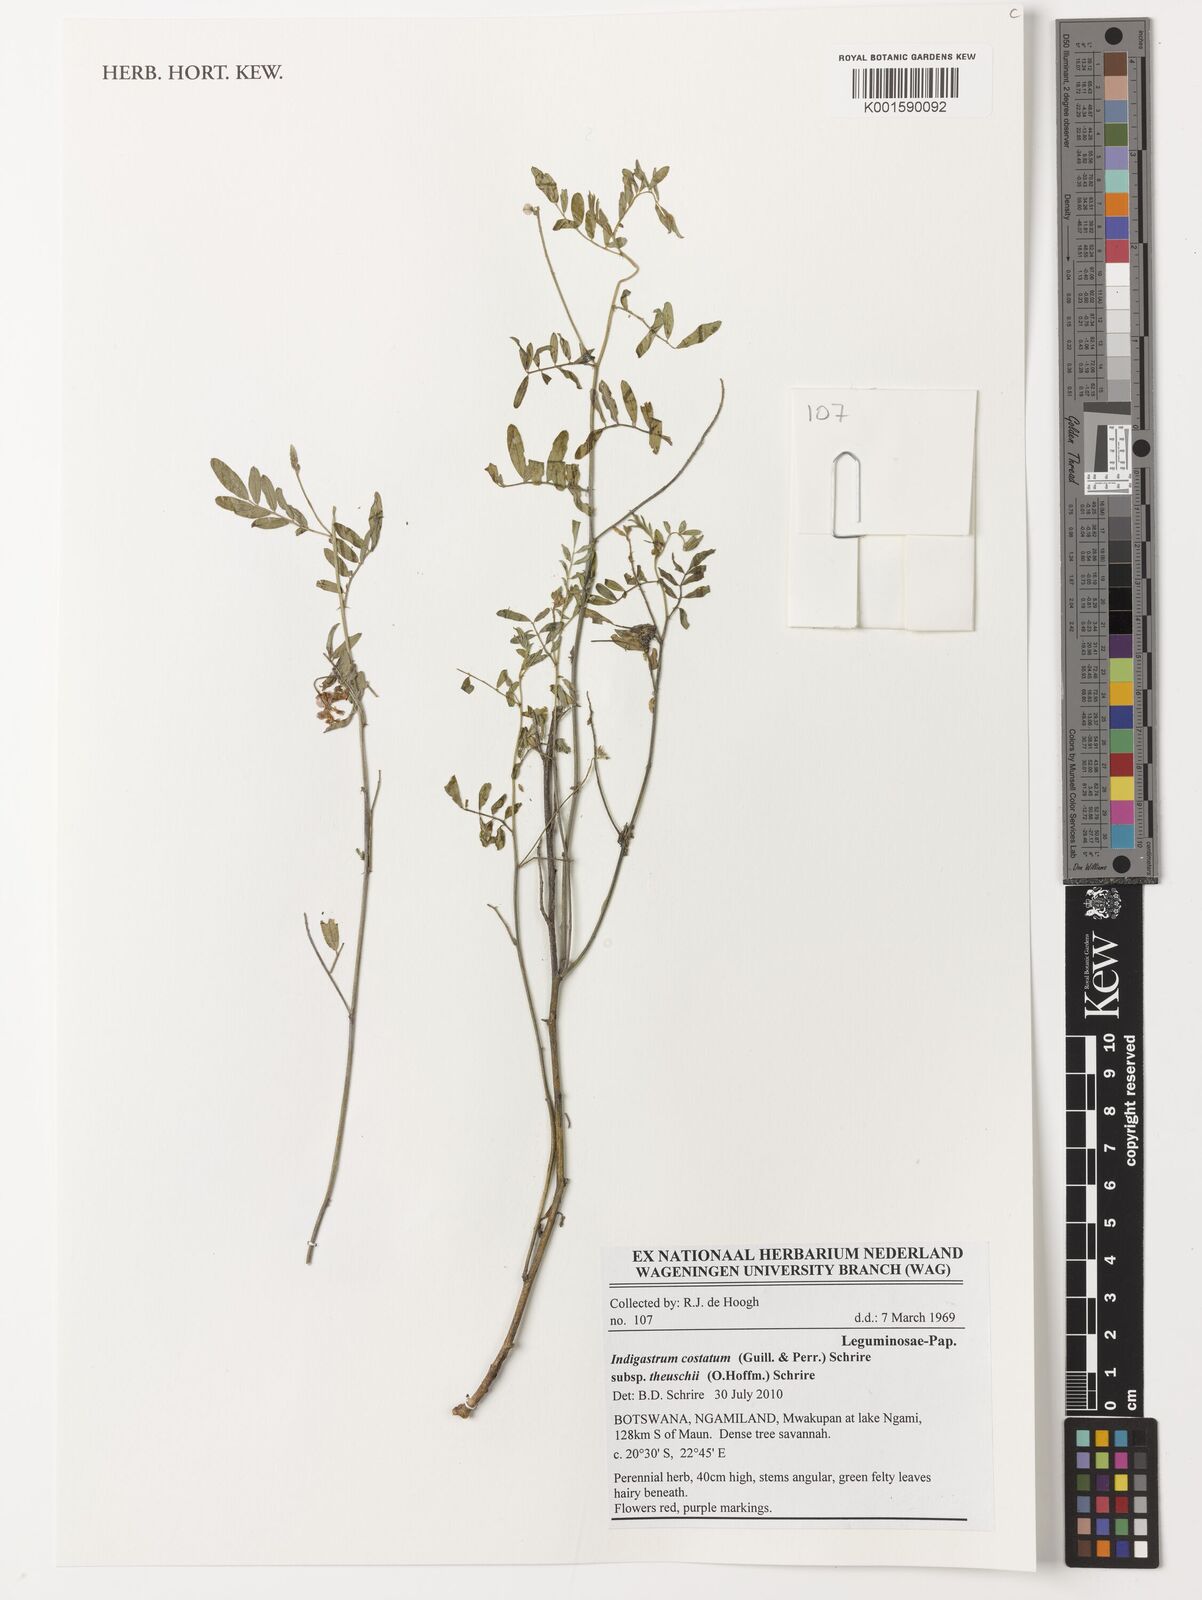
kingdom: Plantae
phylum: Tracheophyta
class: Magnoliopsida
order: Fabales
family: Fabaceae
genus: Indigastrum
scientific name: Indigastrum costatum
